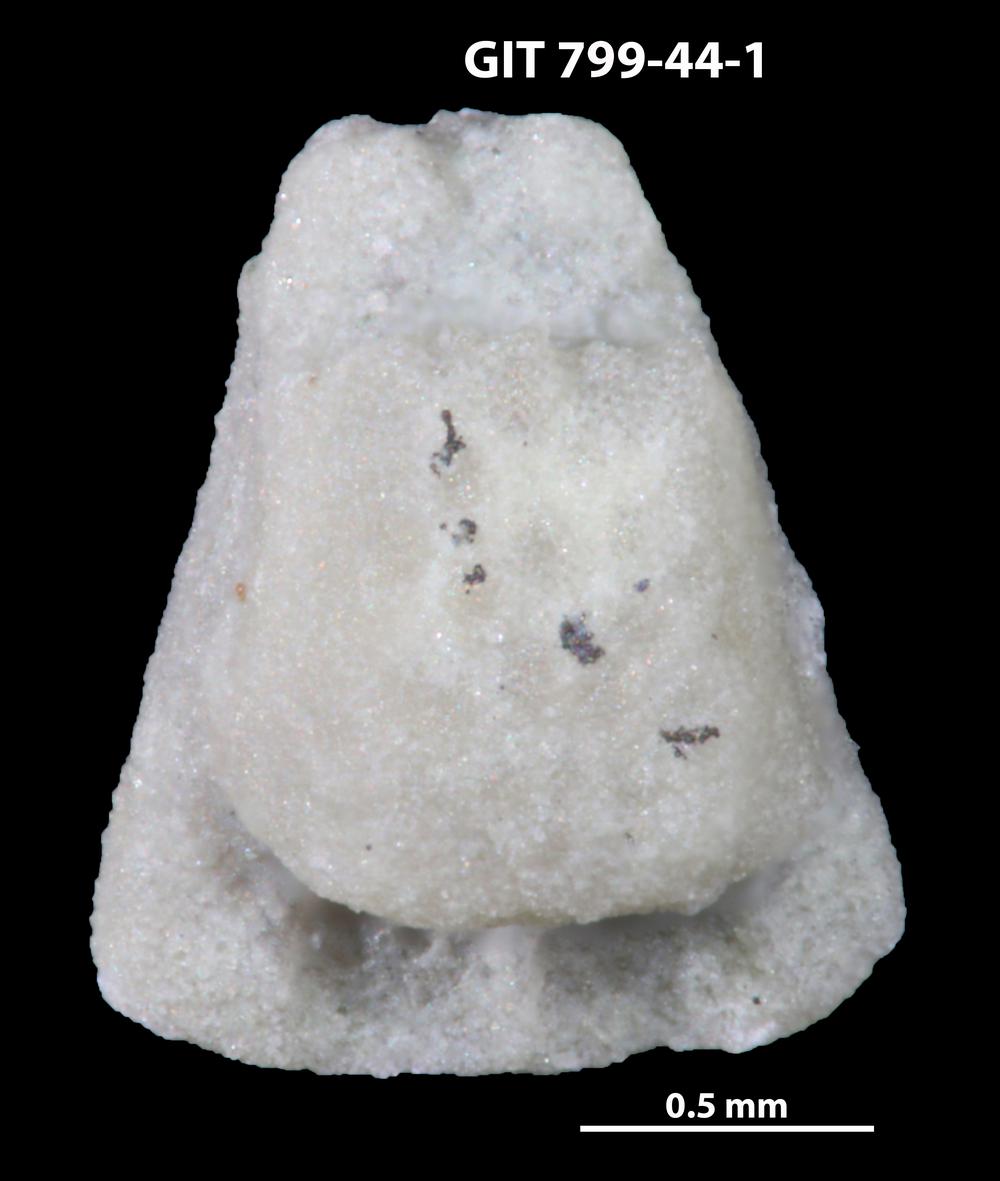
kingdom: Animalia
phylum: Echinodermata
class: Crinoidea
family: Cyclocystoididae
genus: Cyclocystoides
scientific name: Cyclocystoides
